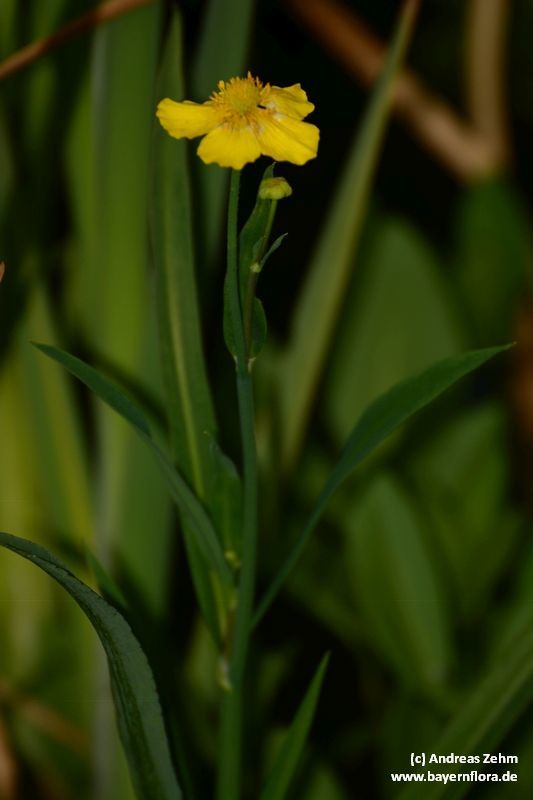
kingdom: Plantae
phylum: Tracheophyta
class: Magnoliopsida
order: Ranunculales
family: Ranunculaceae
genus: Ranunculus
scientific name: Ranunculus lingua
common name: Greater spearwort
